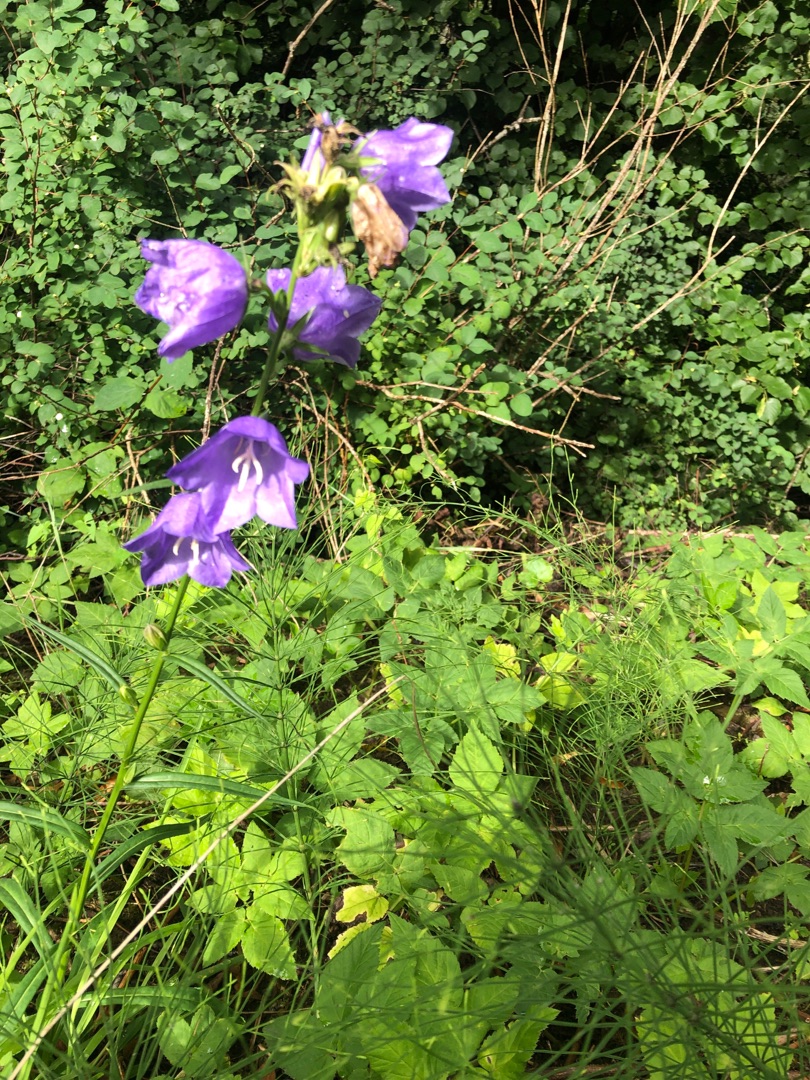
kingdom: Plantae
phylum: Tracheophyta
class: Magnoliopsida
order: Asterales
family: Campanulaceae
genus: Campanula
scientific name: Campanula persicifolia
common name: Smalbladet klokke
